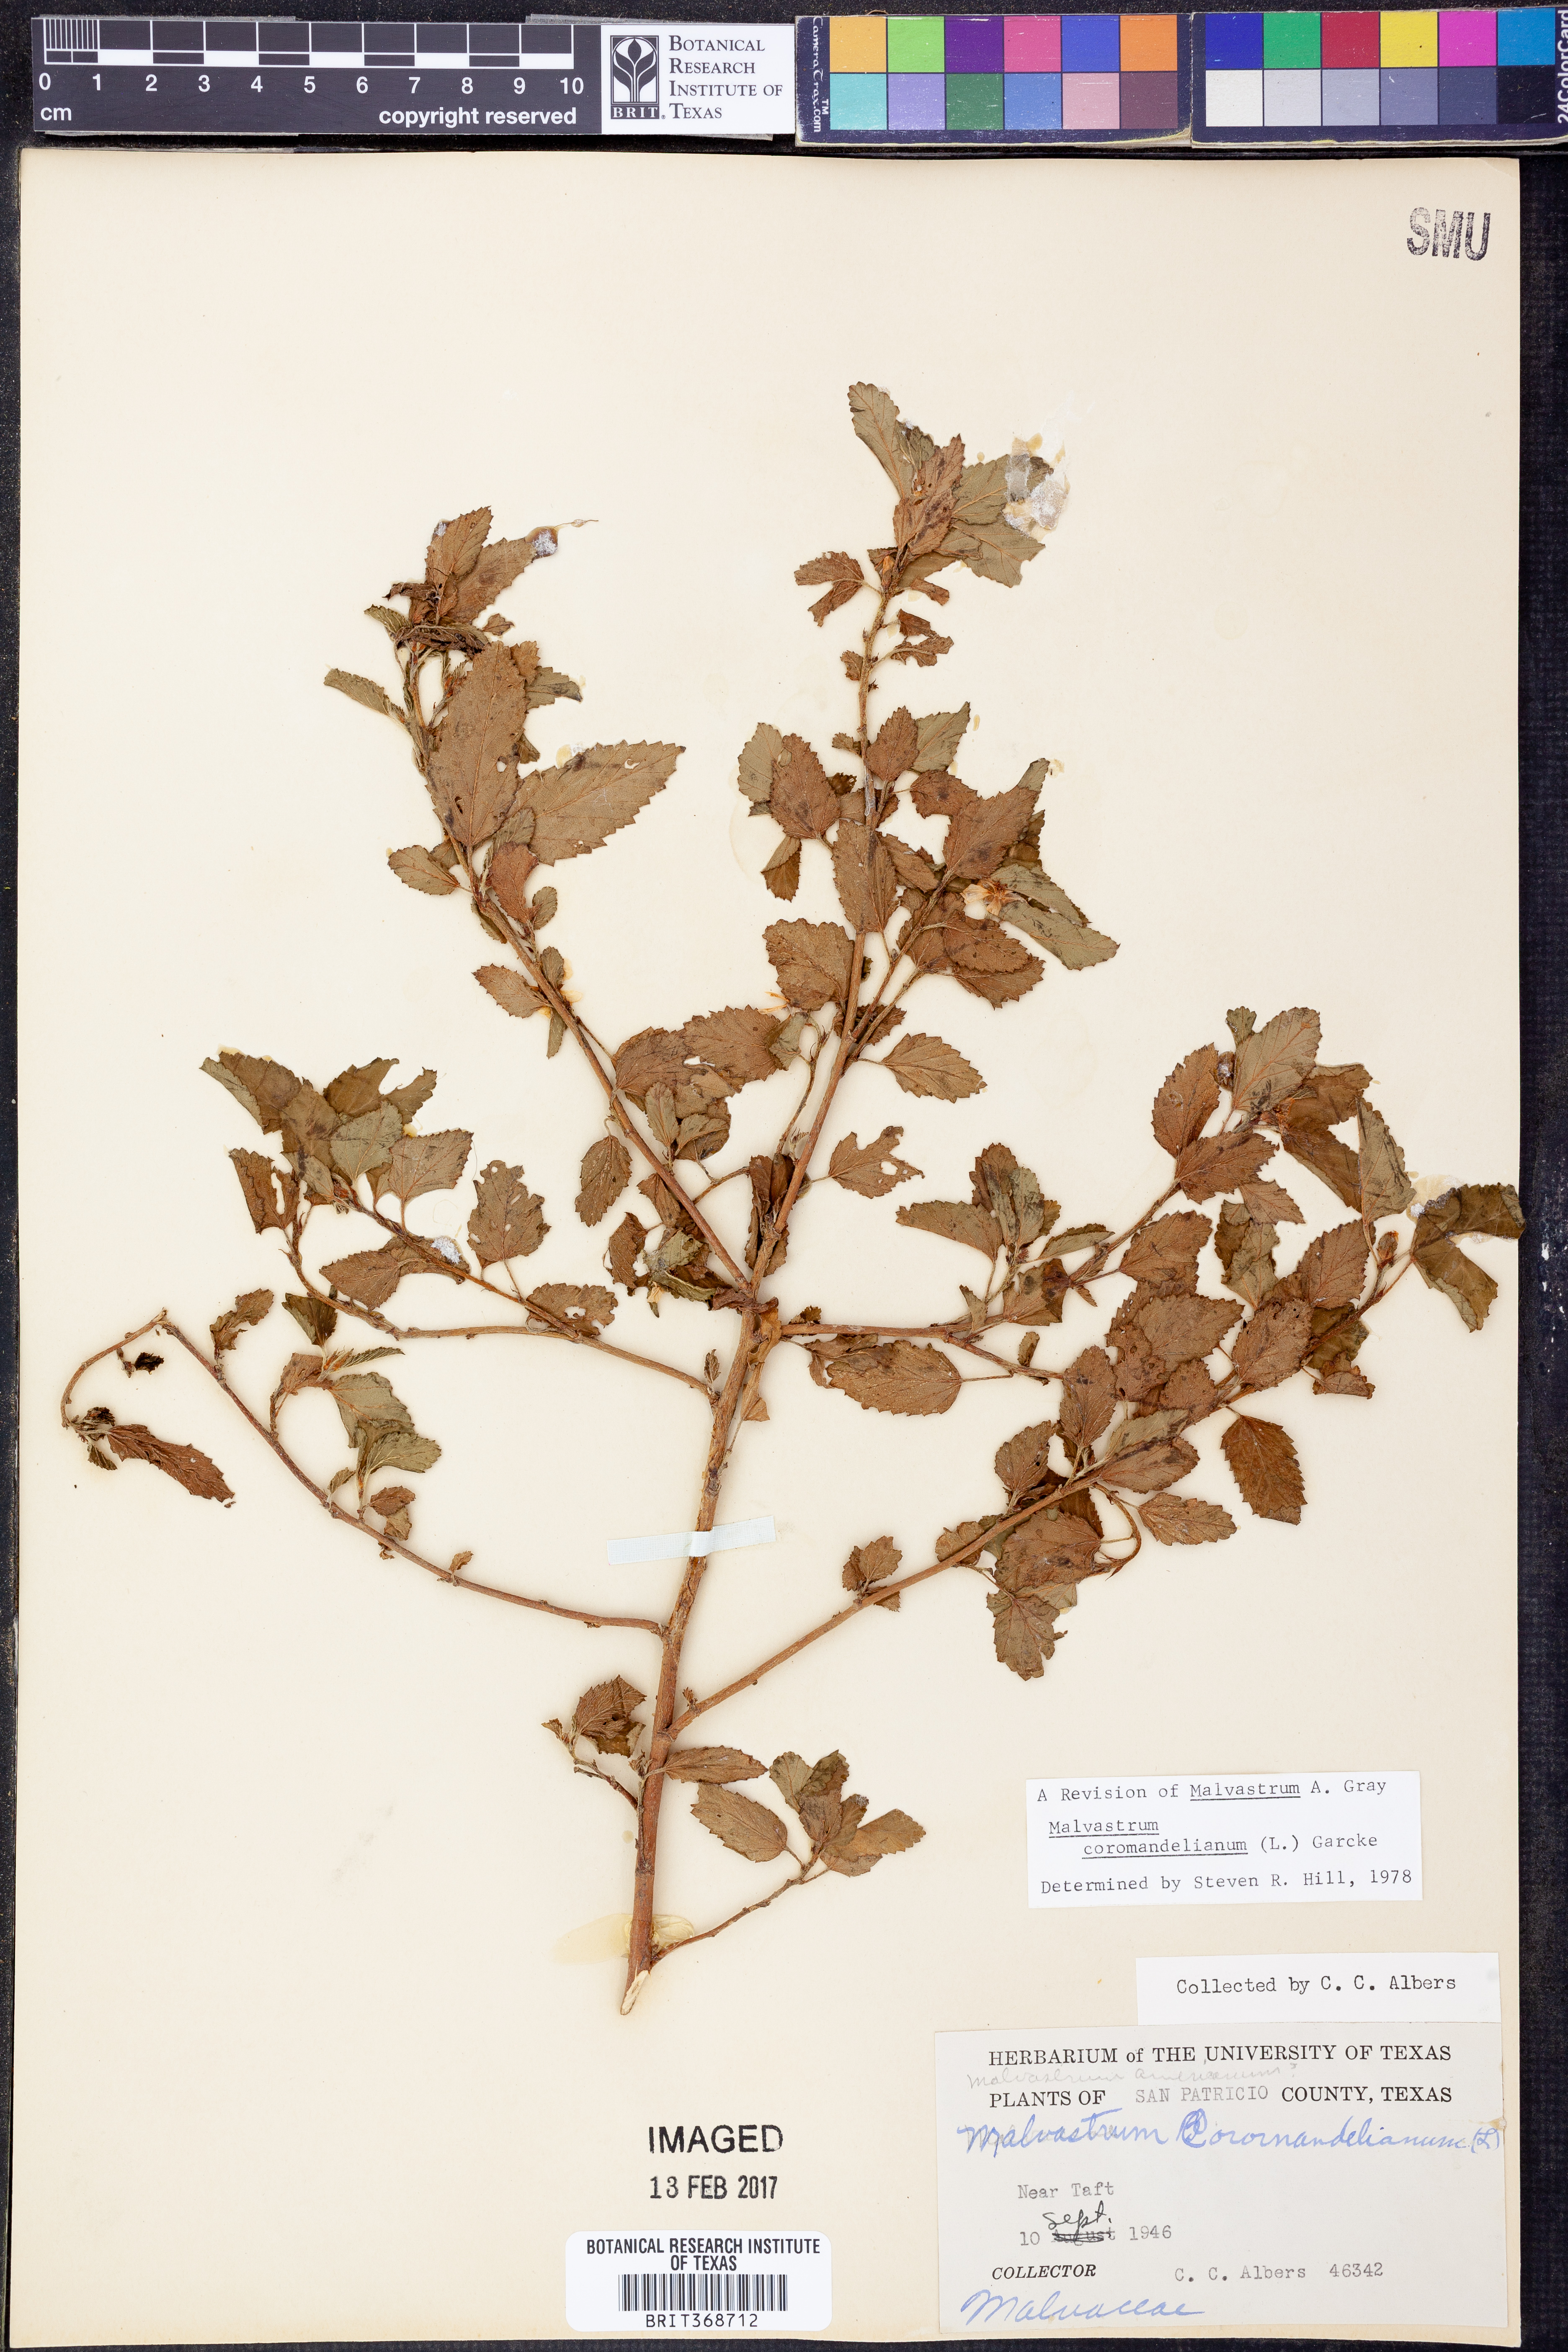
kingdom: Plantae
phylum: Tracheophyta
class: Magnoliopsida
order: Malvales
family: Malvaceae
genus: Malvastrum
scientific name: Malvastrum coromandelianum
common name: Threelobe false mallow
